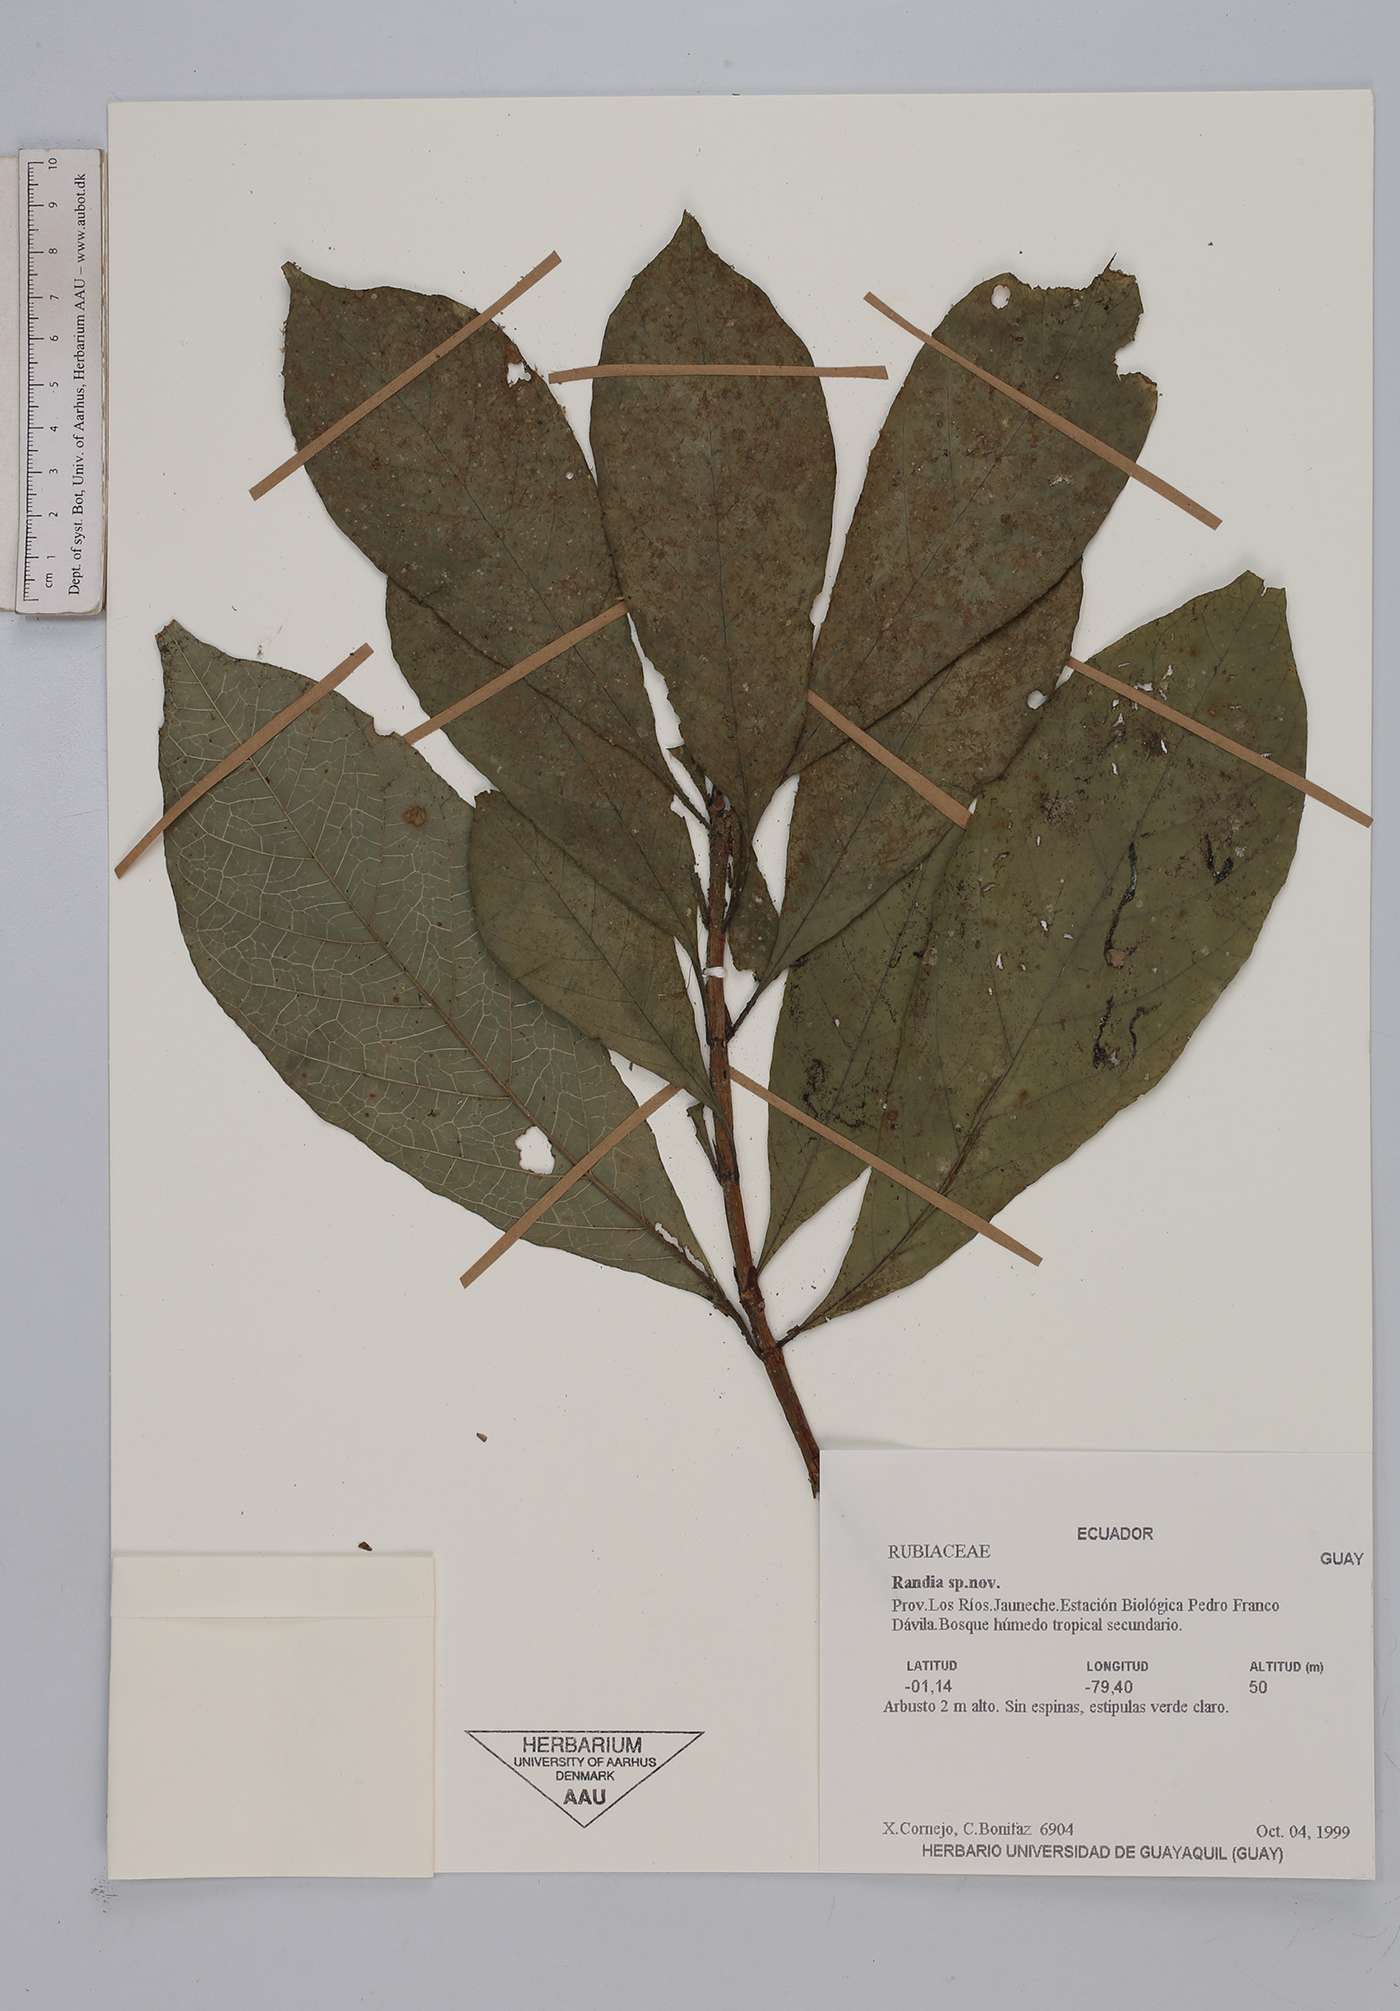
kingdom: Plantae
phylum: Tracheophyta
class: Magnoliopsida
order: Gentianales
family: Rubiaceae
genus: Randia
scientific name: Randia
